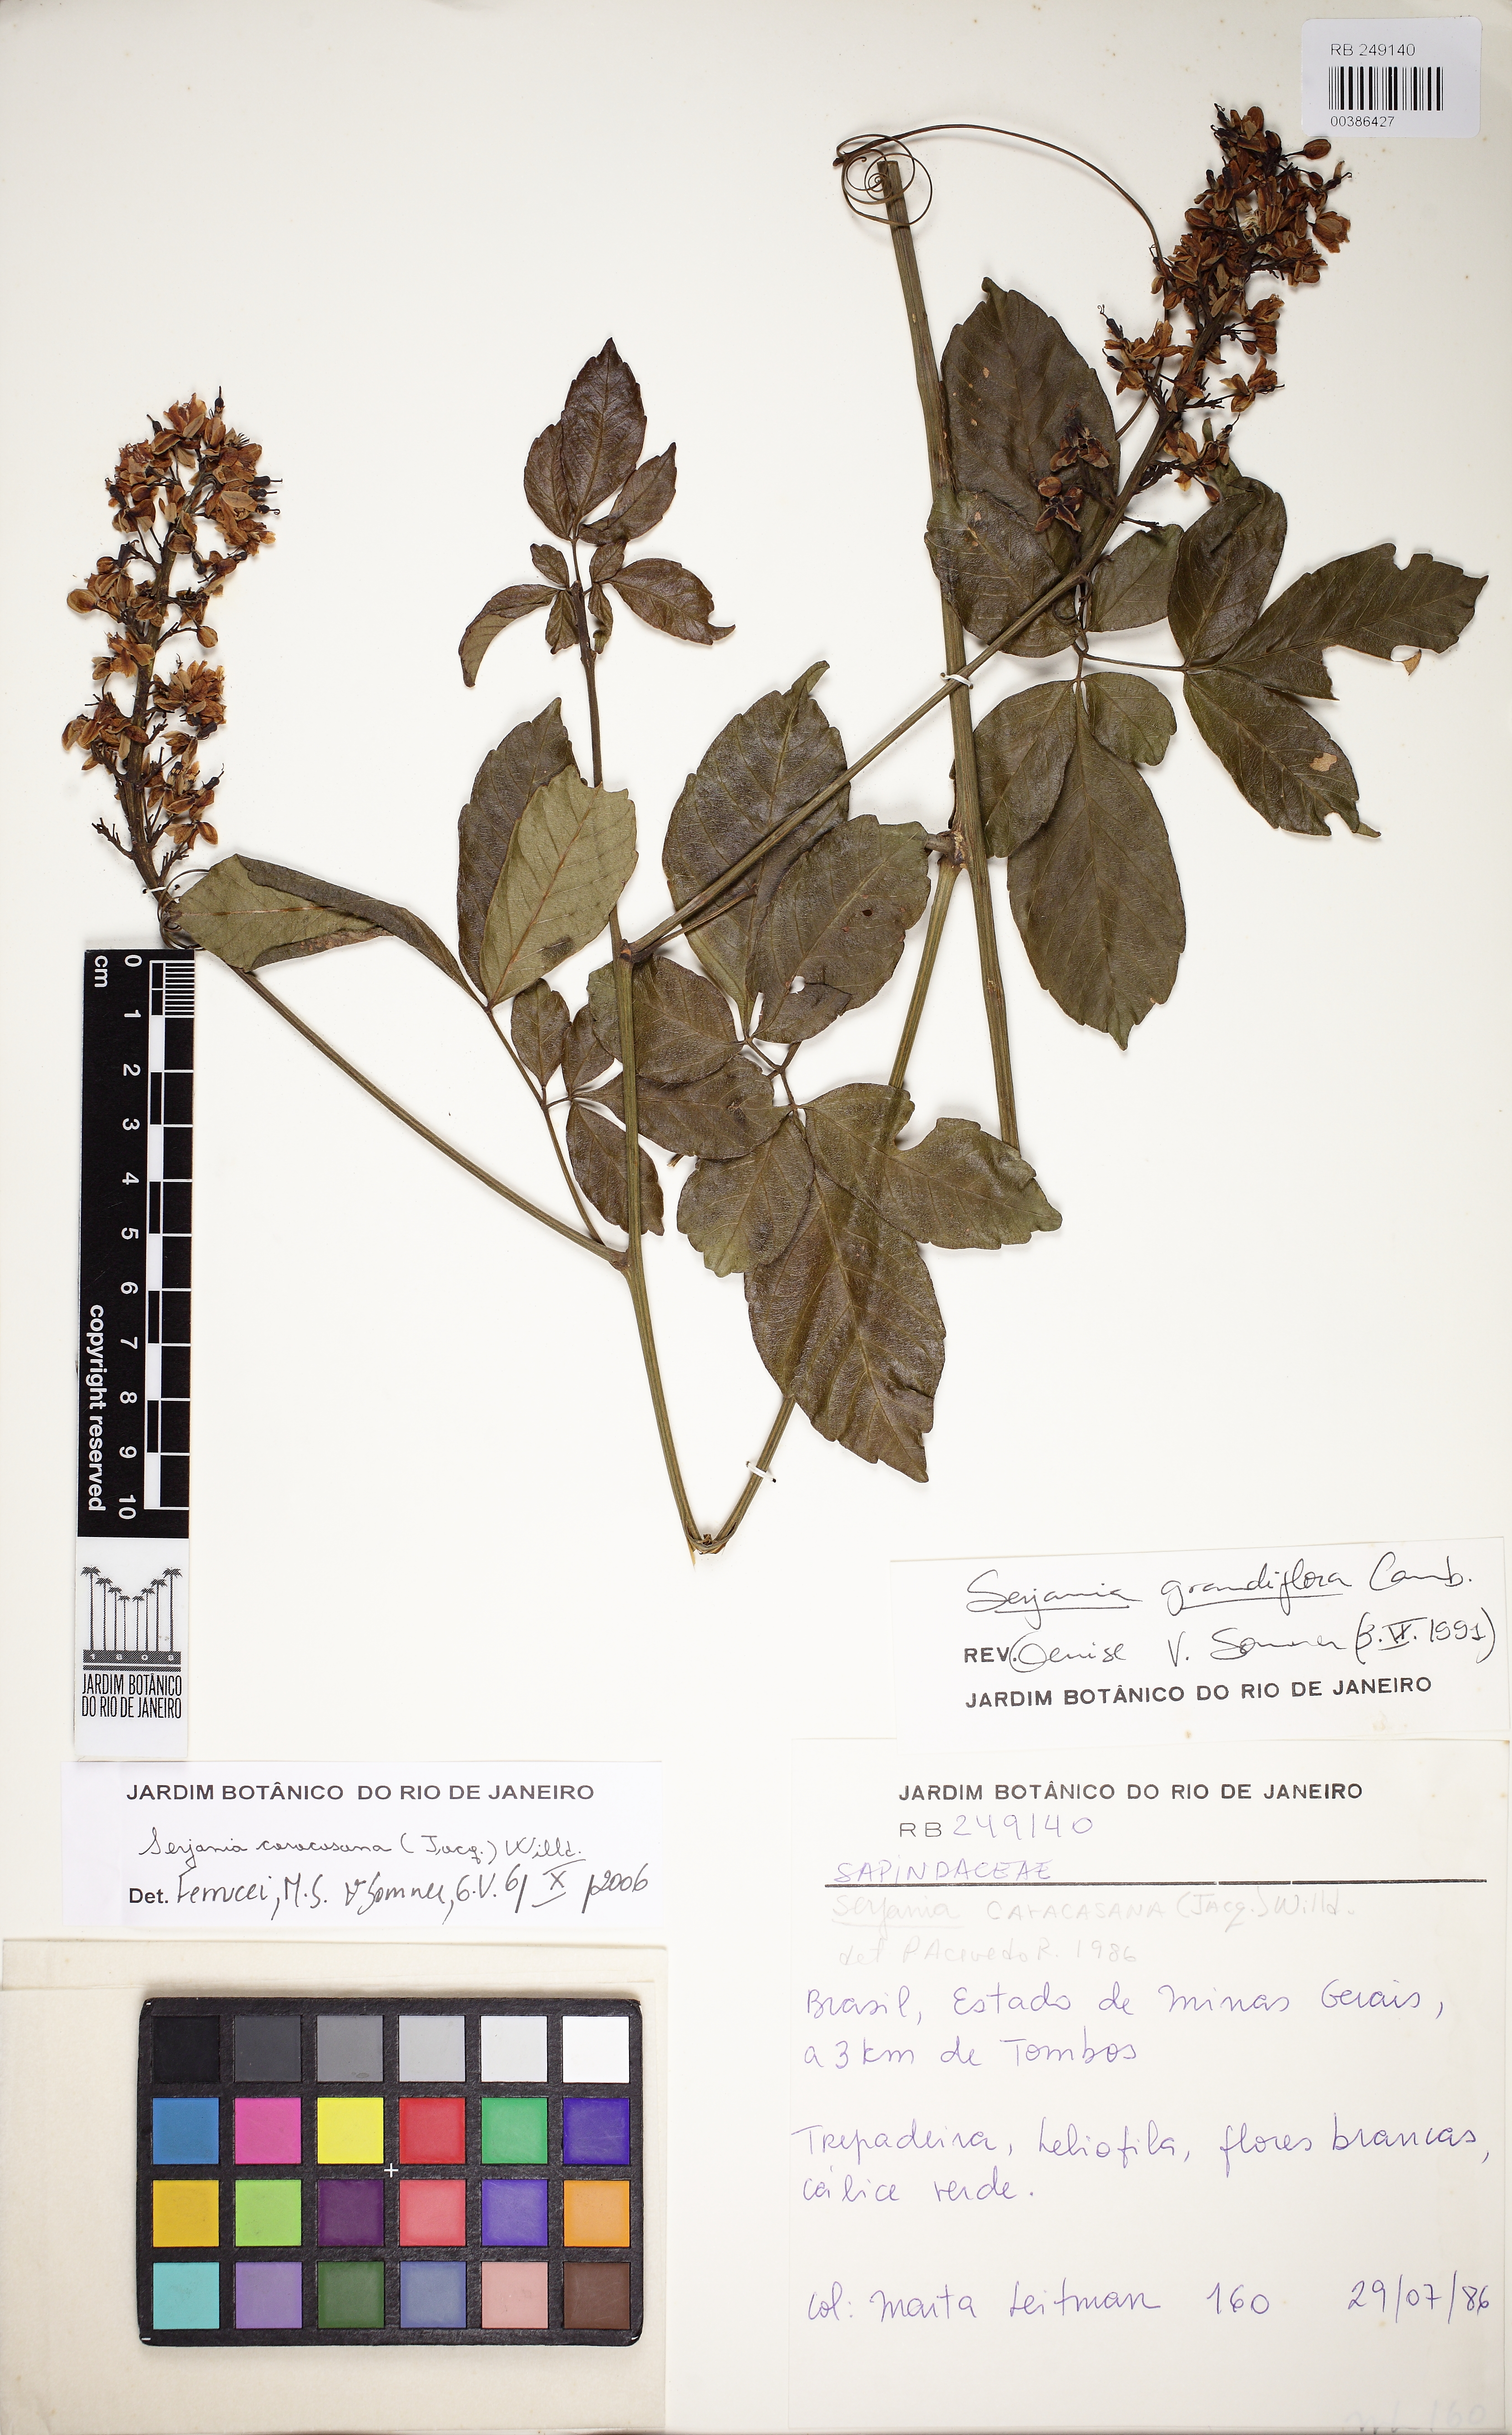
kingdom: Plantae
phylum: Tracheophyta
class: Magnoliopsida
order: Sapindales
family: Sapindaceae
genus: Serjania
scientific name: Serjania caracasana
